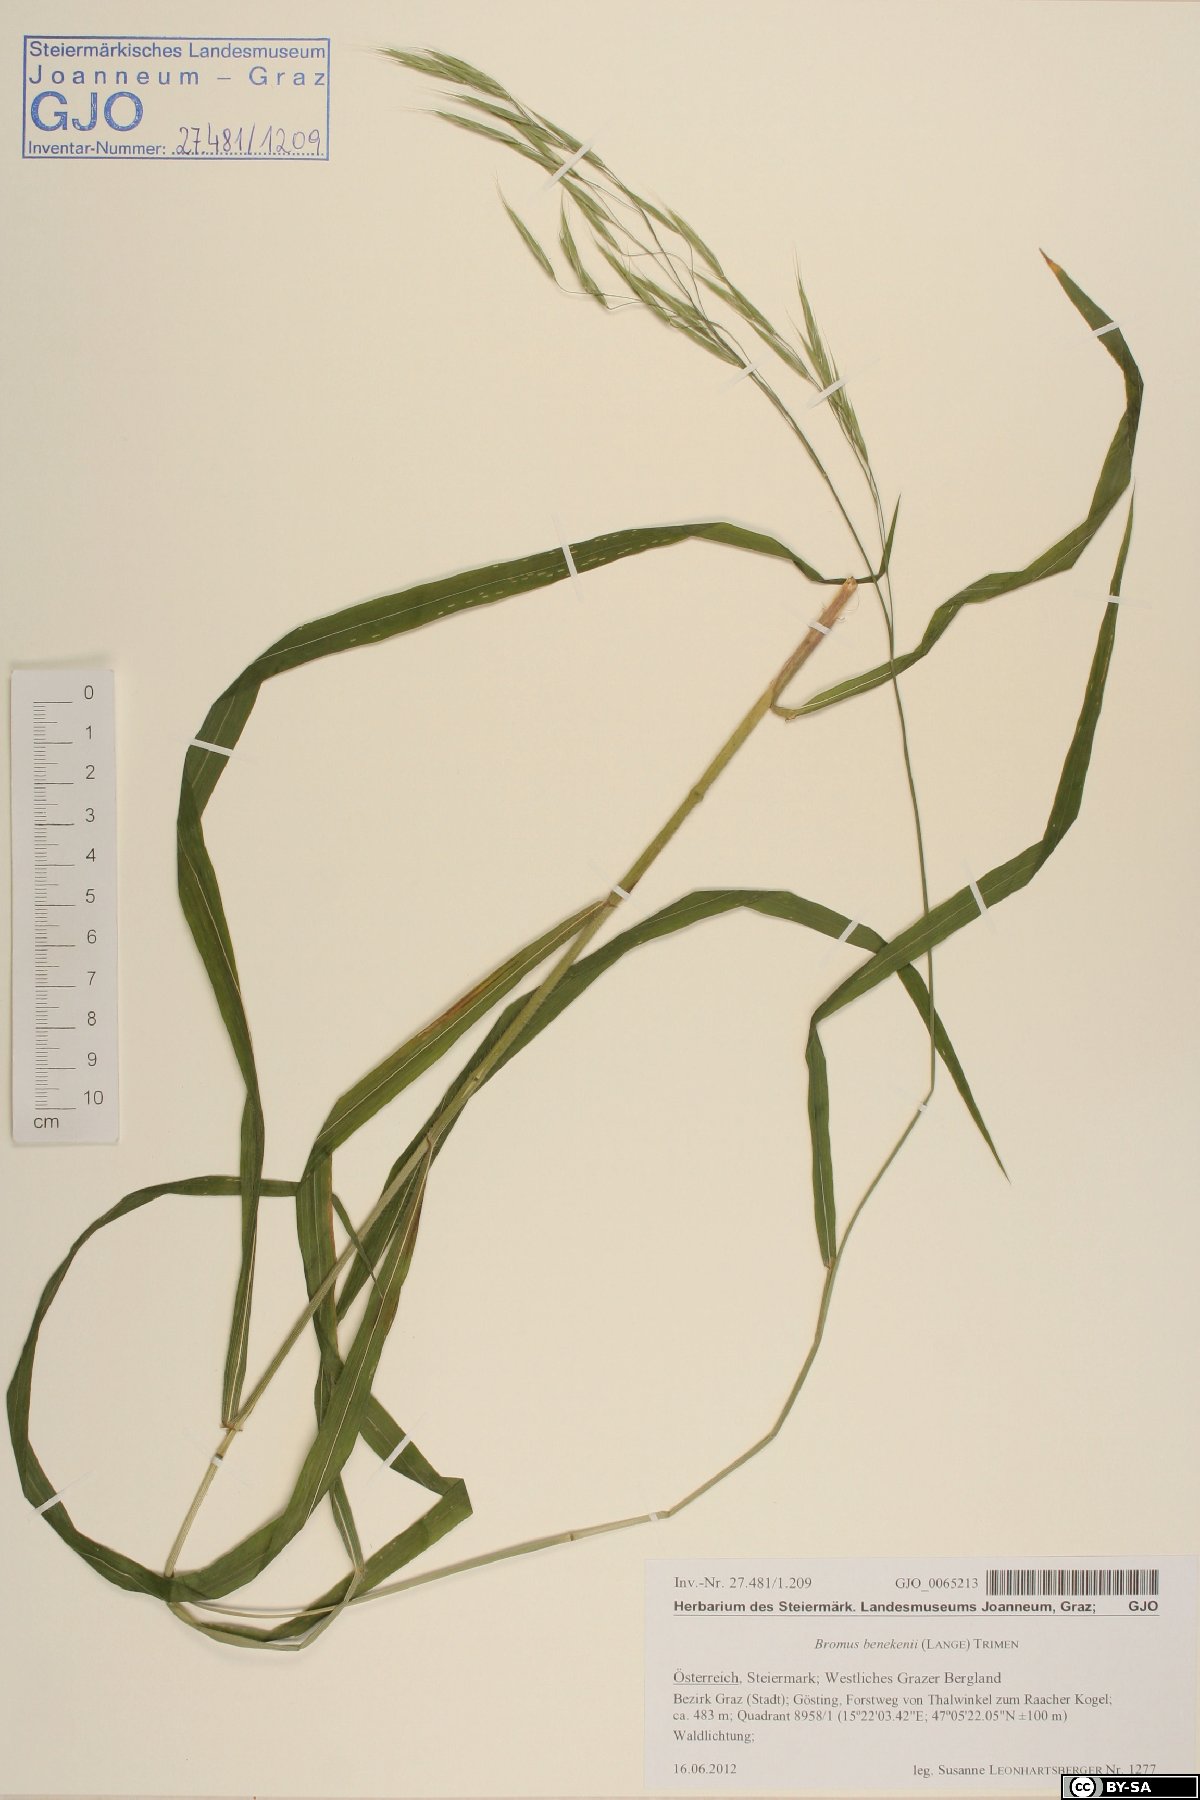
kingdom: Plantae
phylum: Tracheophyta
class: Liliopsida
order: Poales
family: Poaceae
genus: Bromus
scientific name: Bromus benekenii
